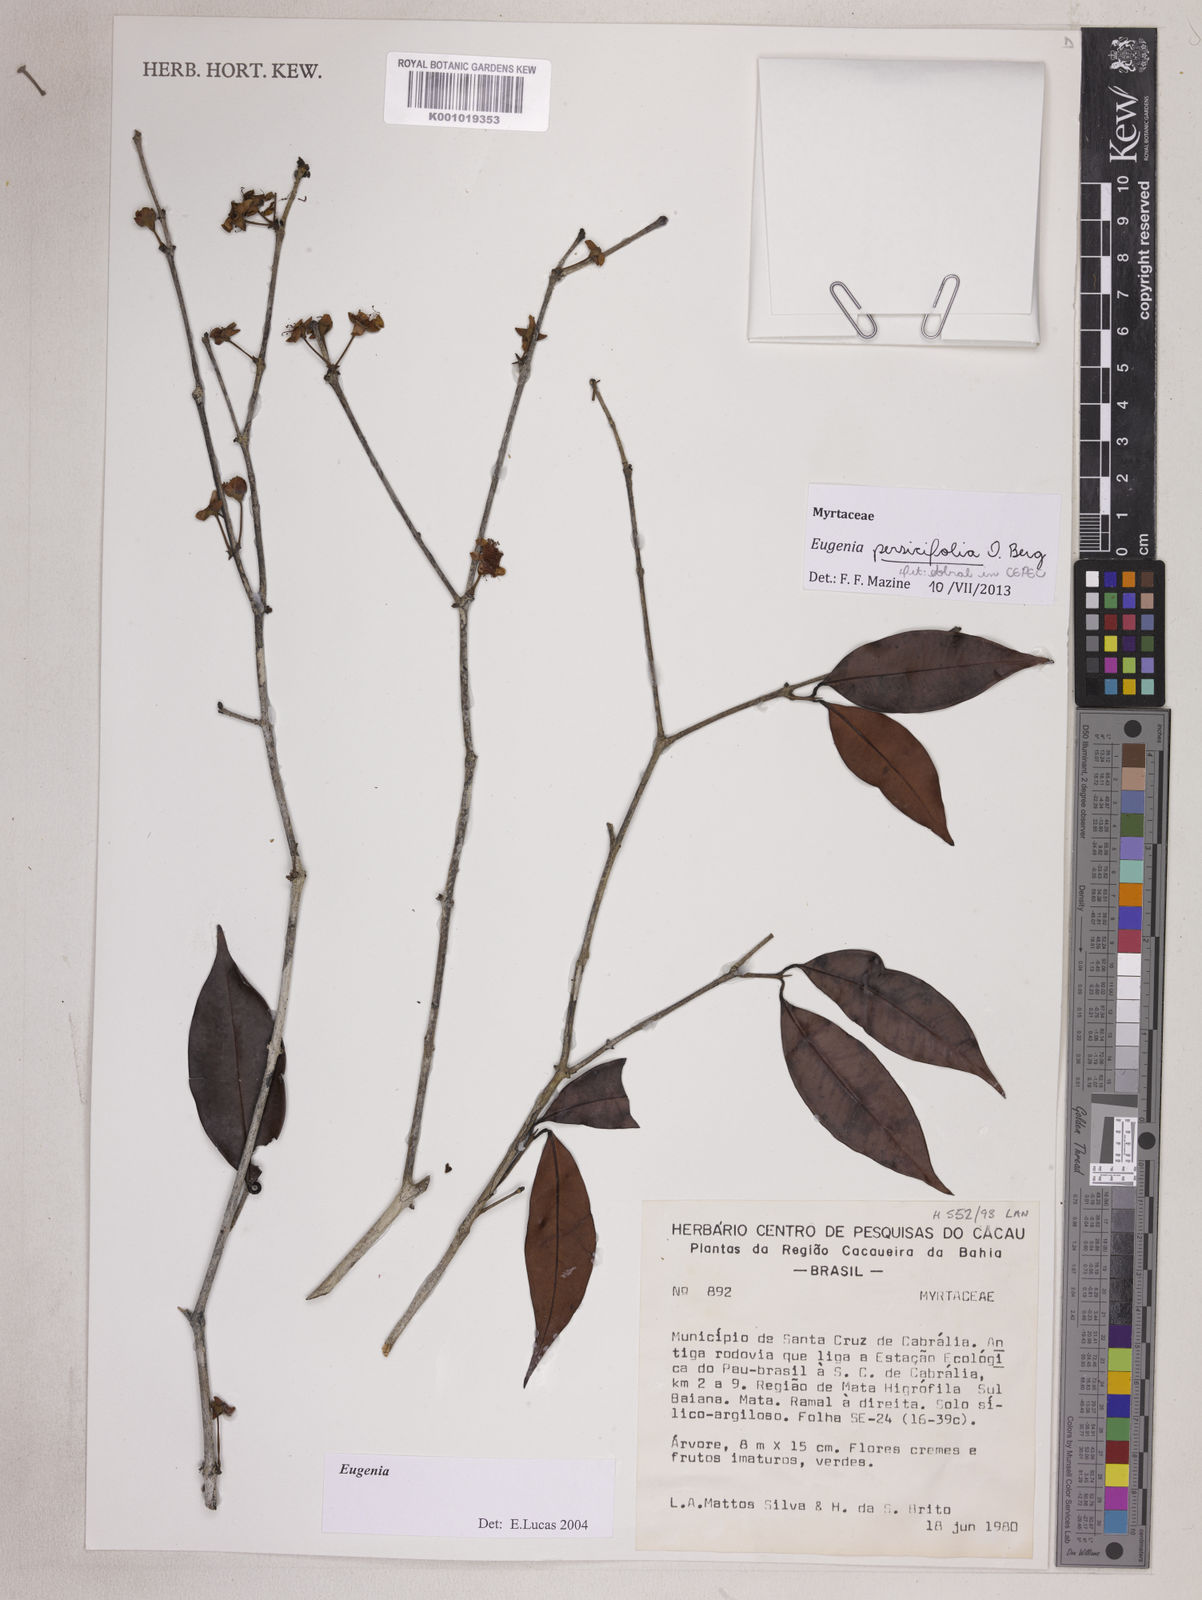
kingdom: Plantae
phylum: Tracheophyta
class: Magnoliopsida
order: Myrtales
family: Myrtaceae
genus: Eugenia
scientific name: Eugenia persicifolia
